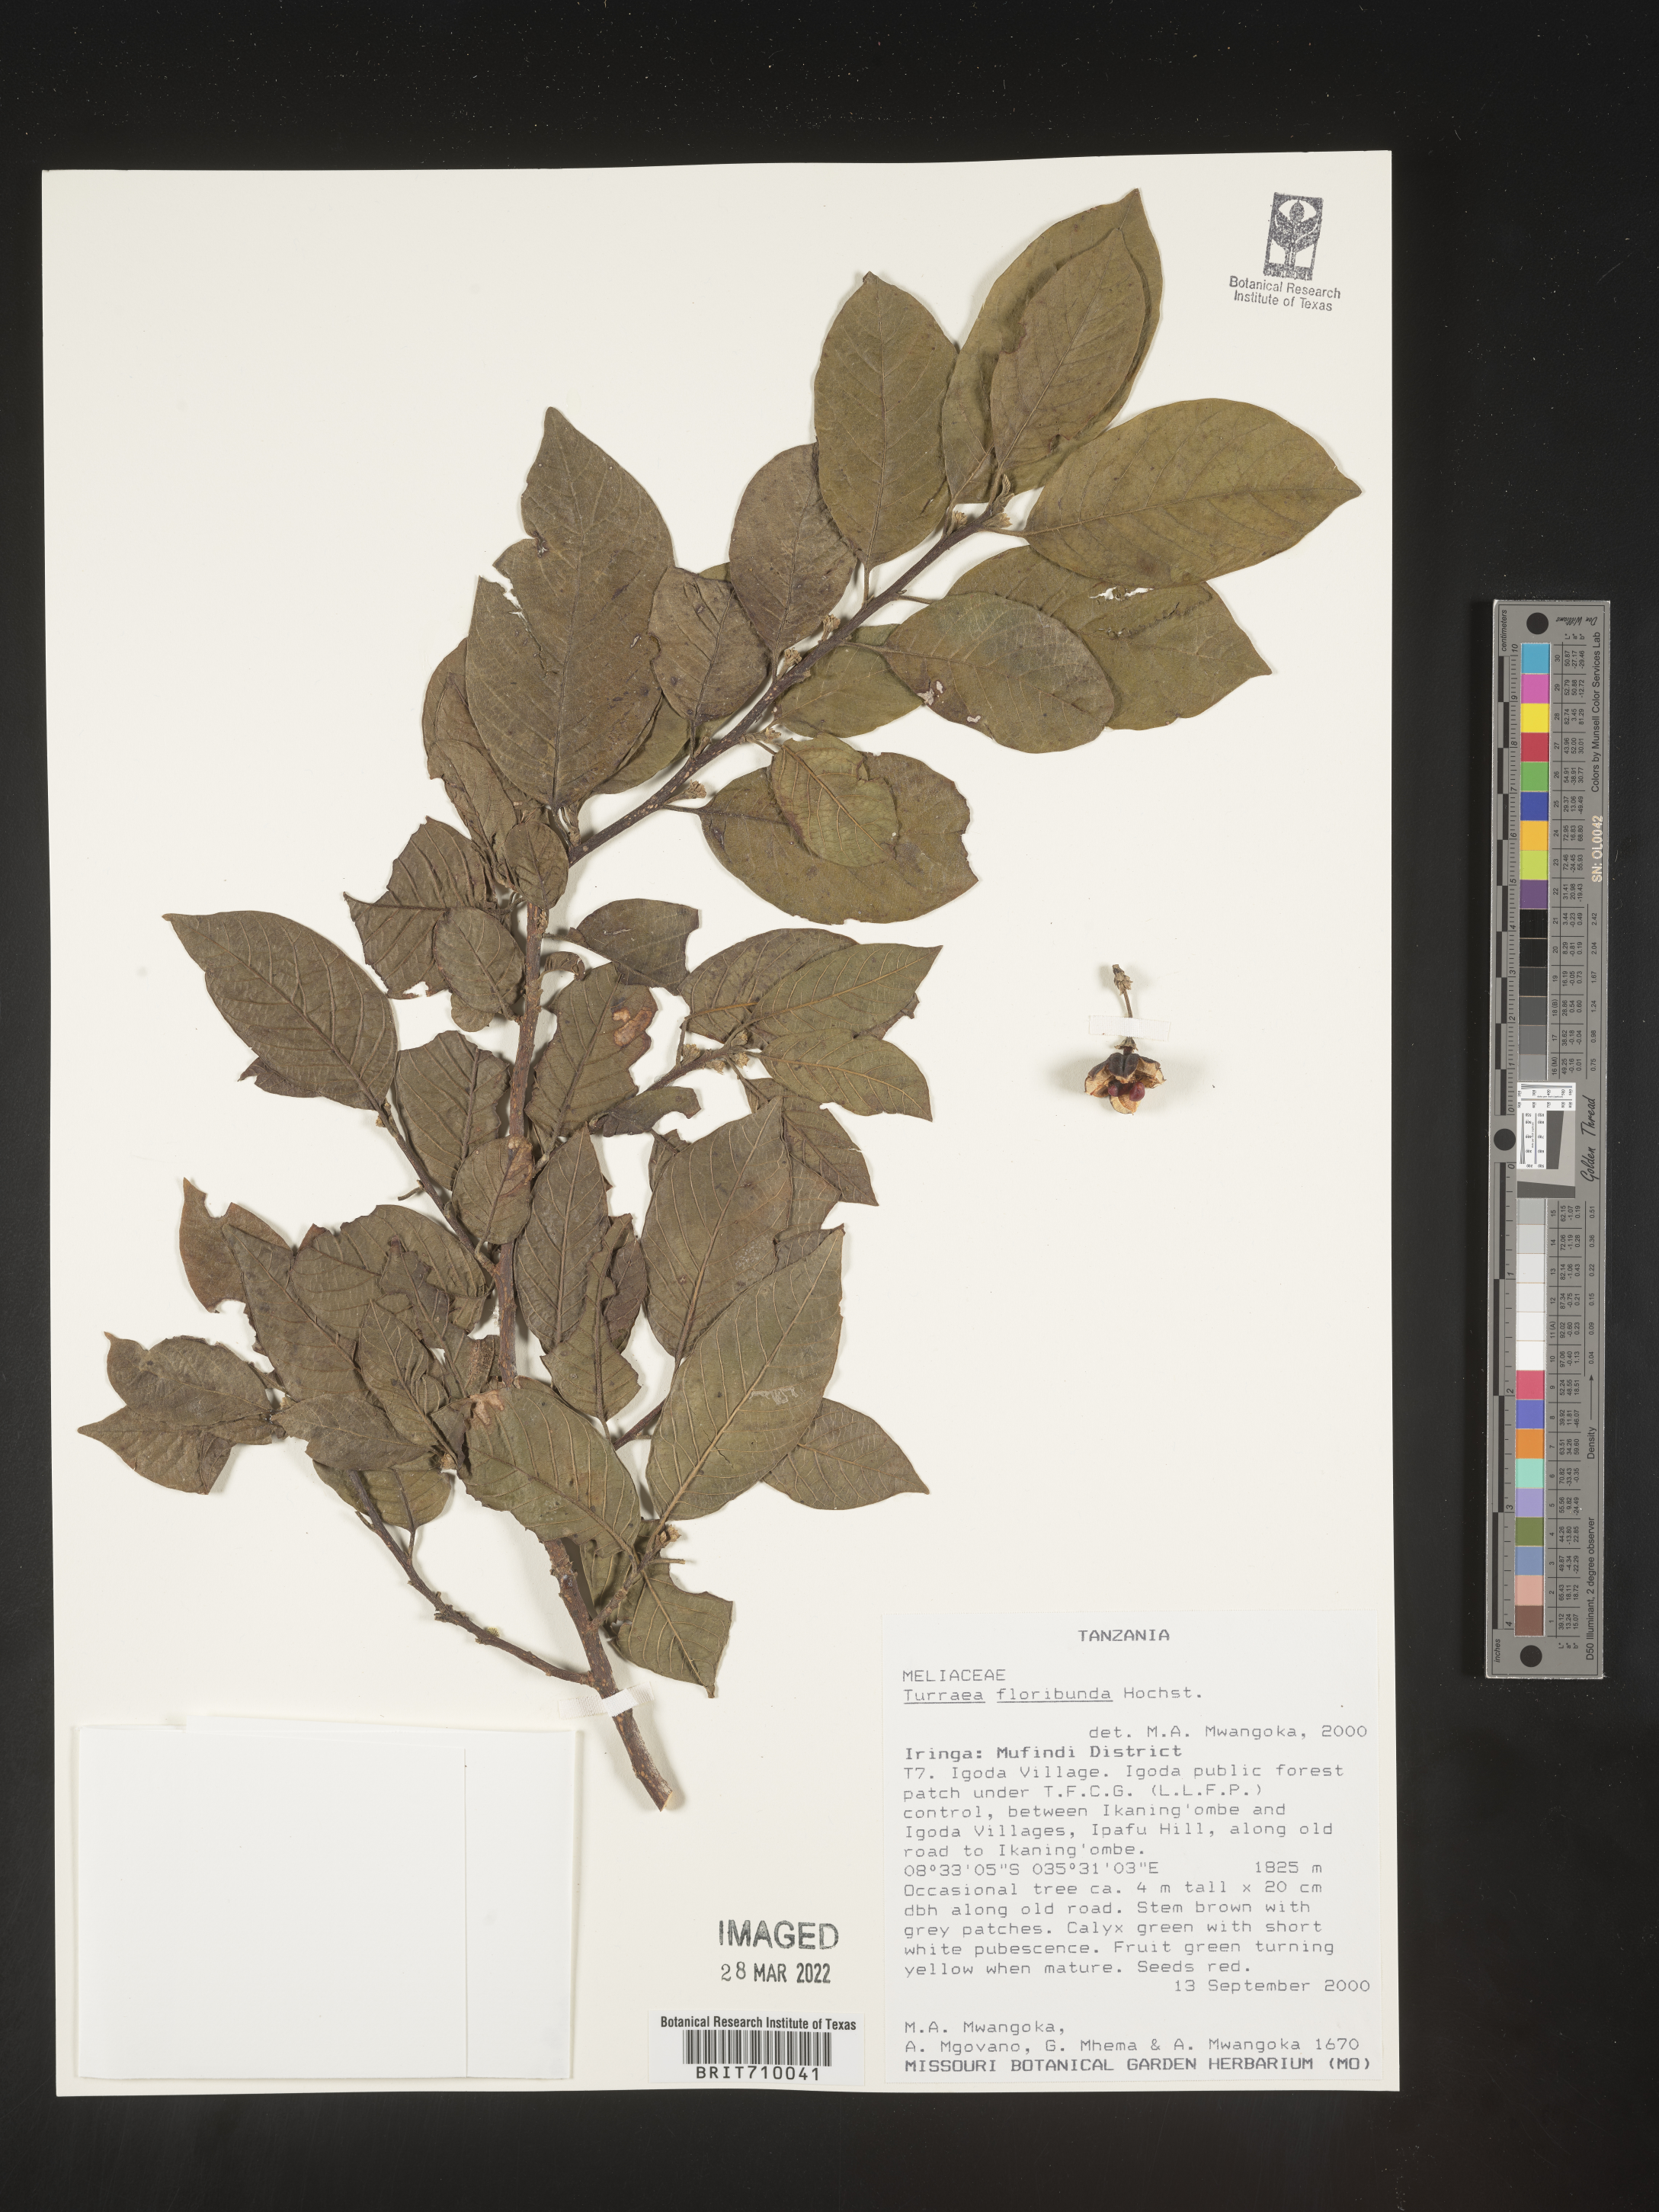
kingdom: Plantae
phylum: Tracheophyta
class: Magnoliopsida
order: Sapindales
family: Meliaceae
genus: Turraea
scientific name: Turraea
